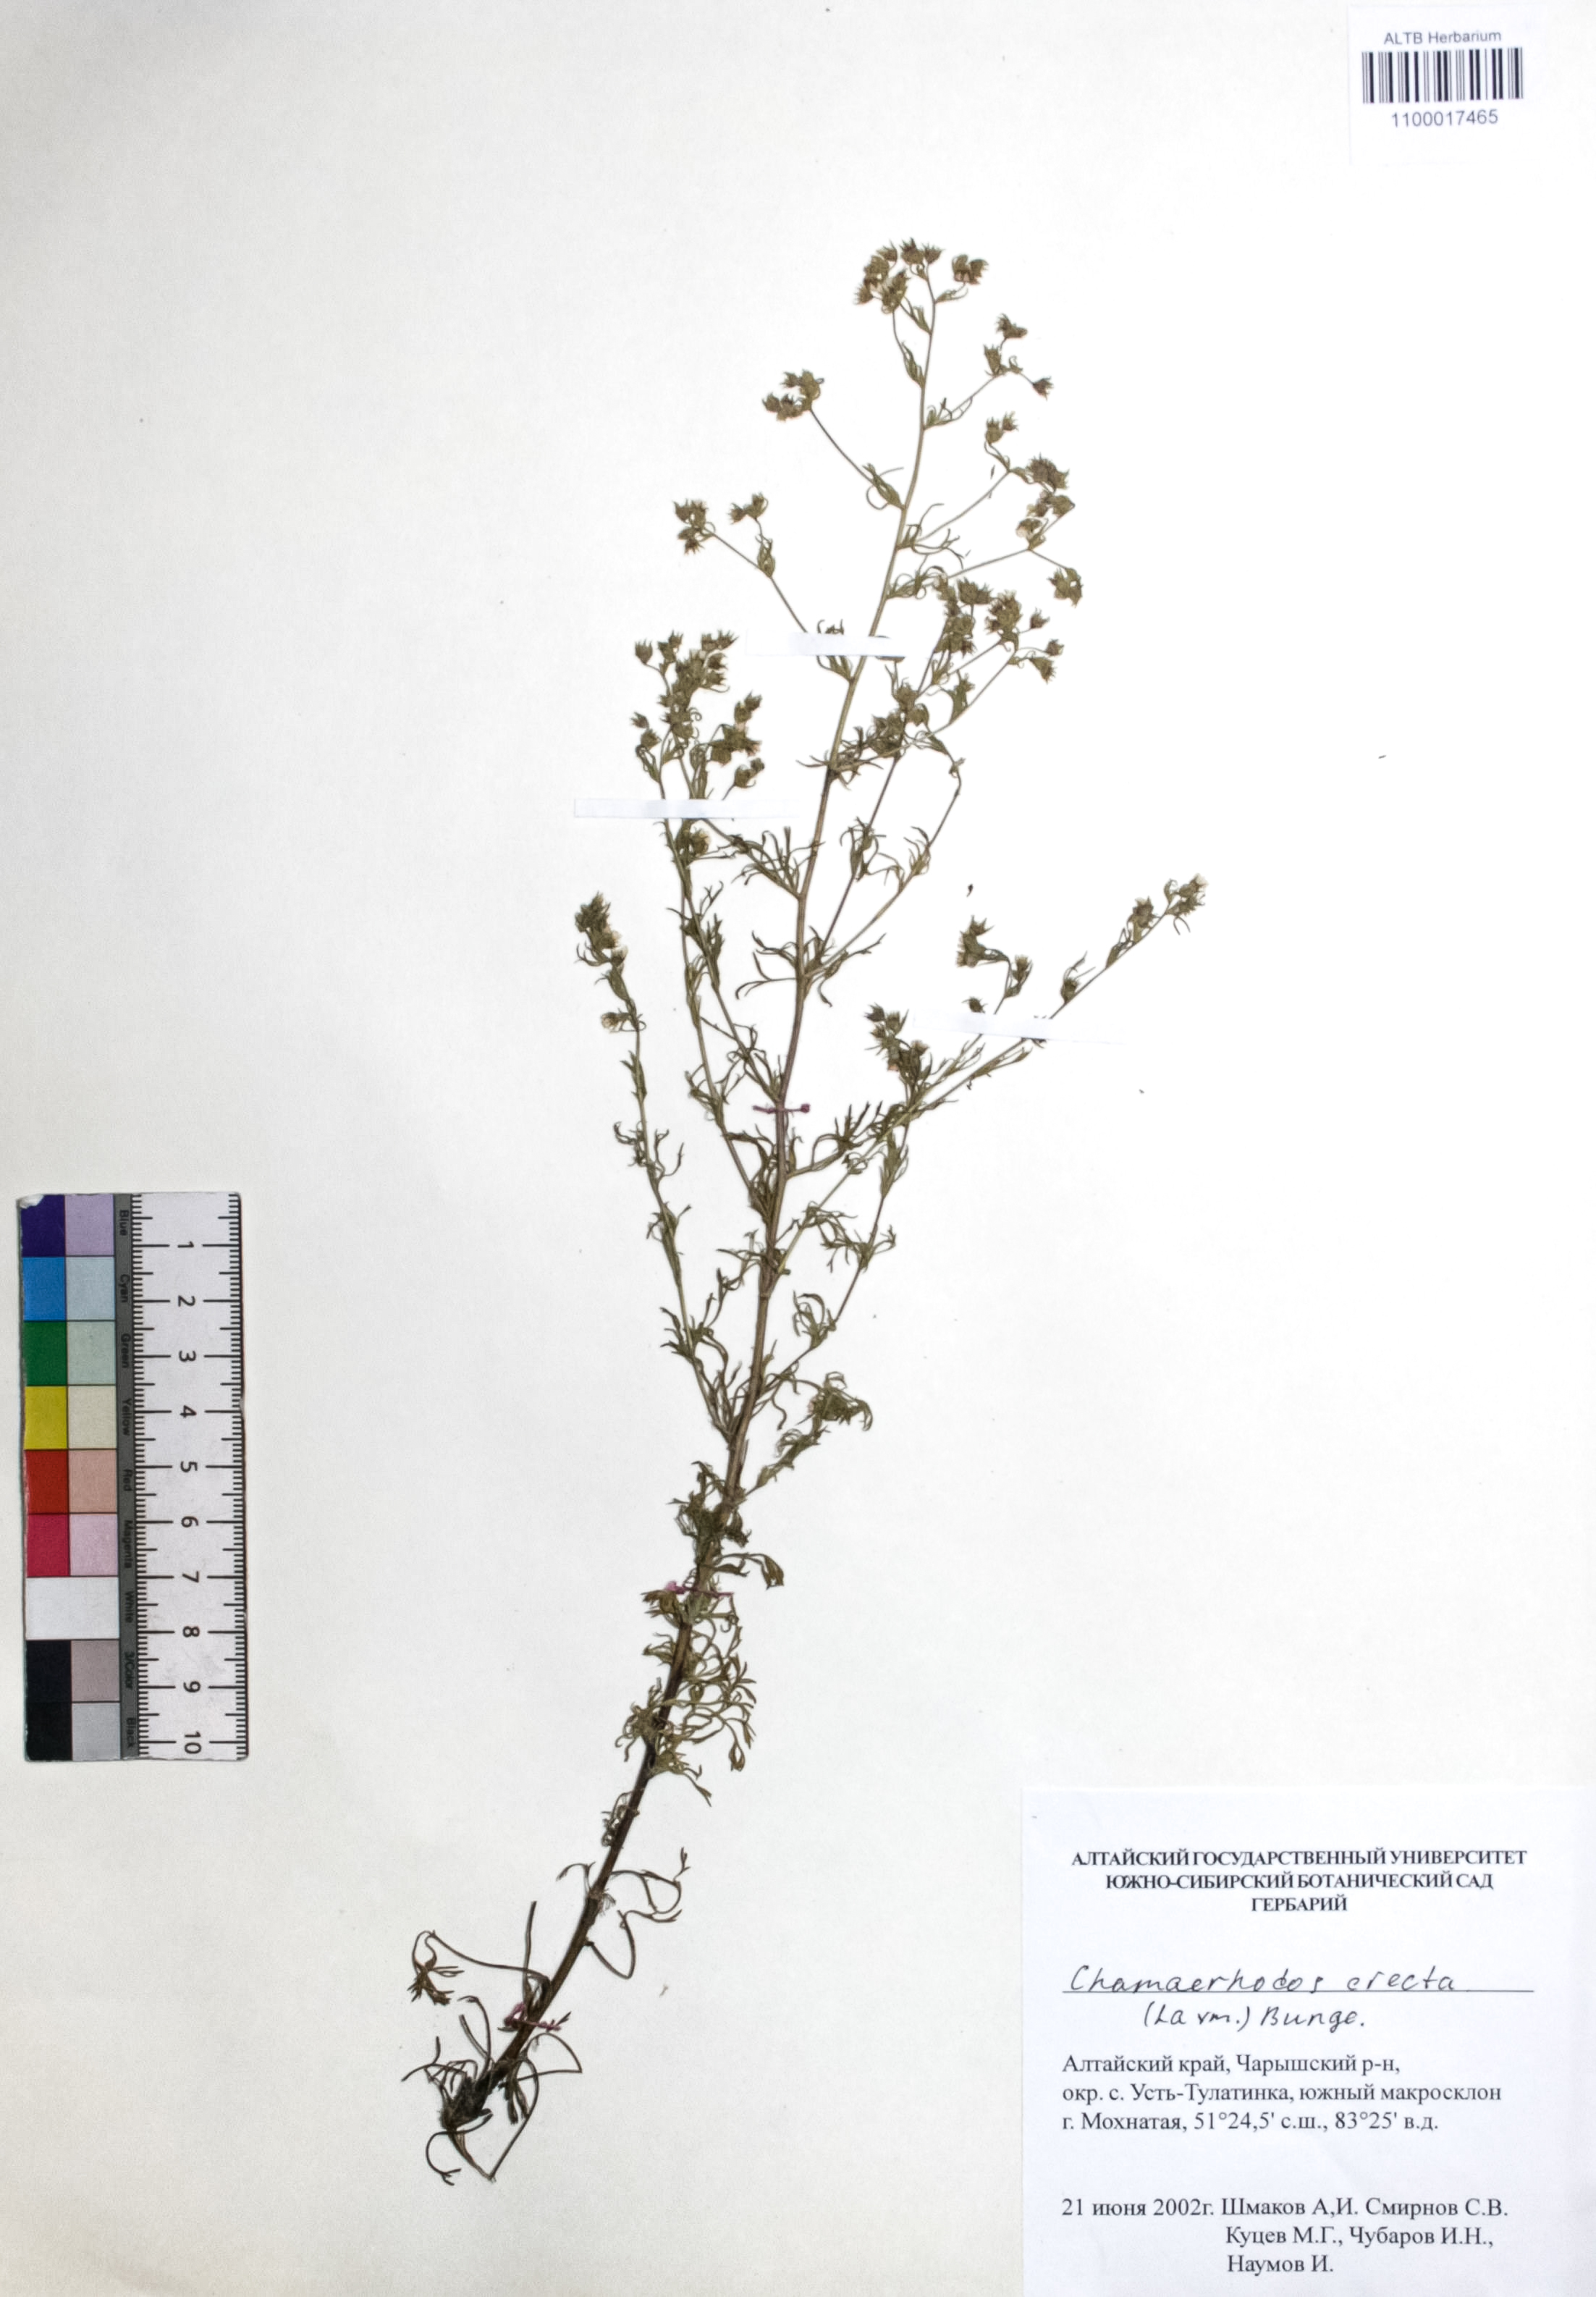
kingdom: Plantae
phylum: Tracheophyta
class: Magnoliopsida
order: Rosales
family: Rosaceae
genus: Chamaerhodos
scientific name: Chamaerhodos erecta
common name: American chamaerhodos
